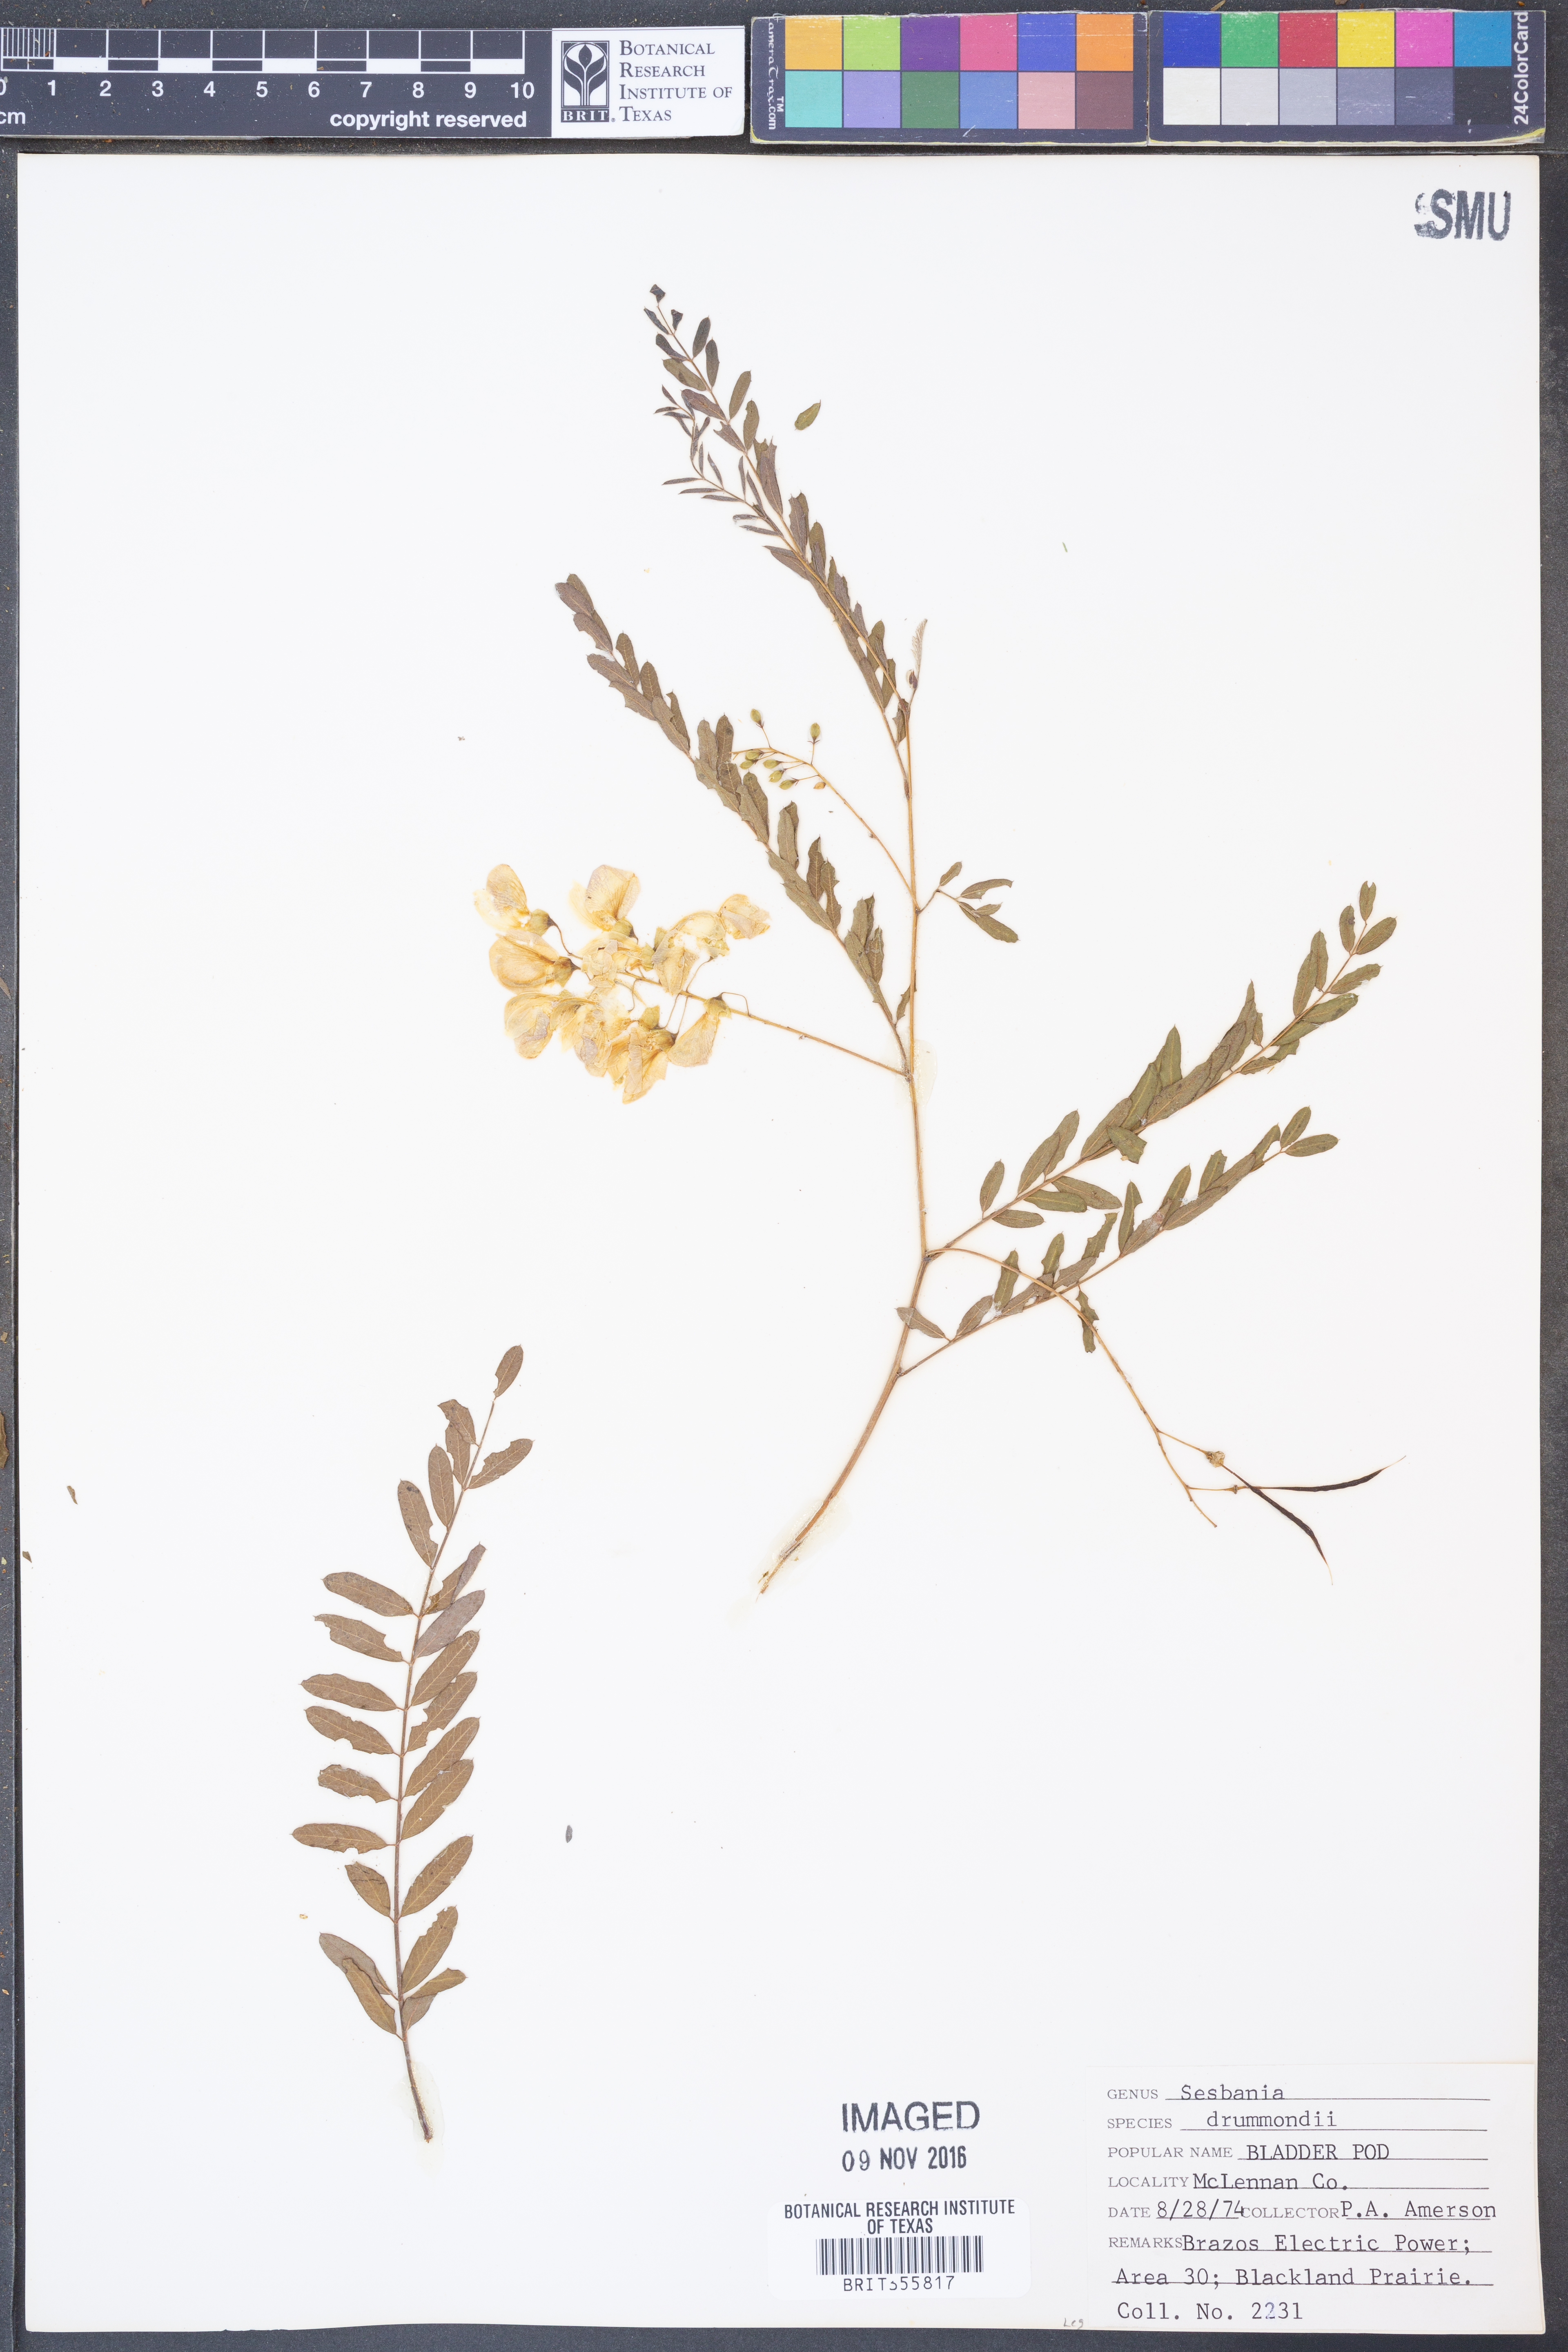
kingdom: Plantae
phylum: Tracheophyta
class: Magnoliopsida
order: Fabales
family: Fabaceae
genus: Sesbania
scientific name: Sesbania drummondii
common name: Poison-bean
